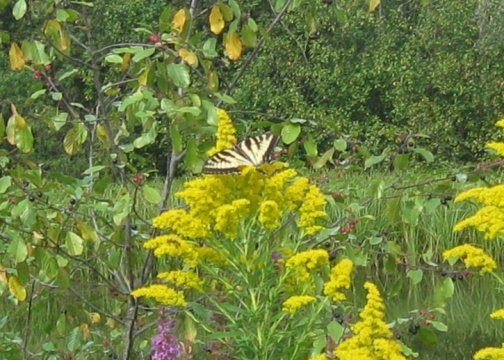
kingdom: Animalia
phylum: Arthropoda
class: Insecta
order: Lepidoptera
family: Papilionidae
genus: Pterourus
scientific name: Pterourus
